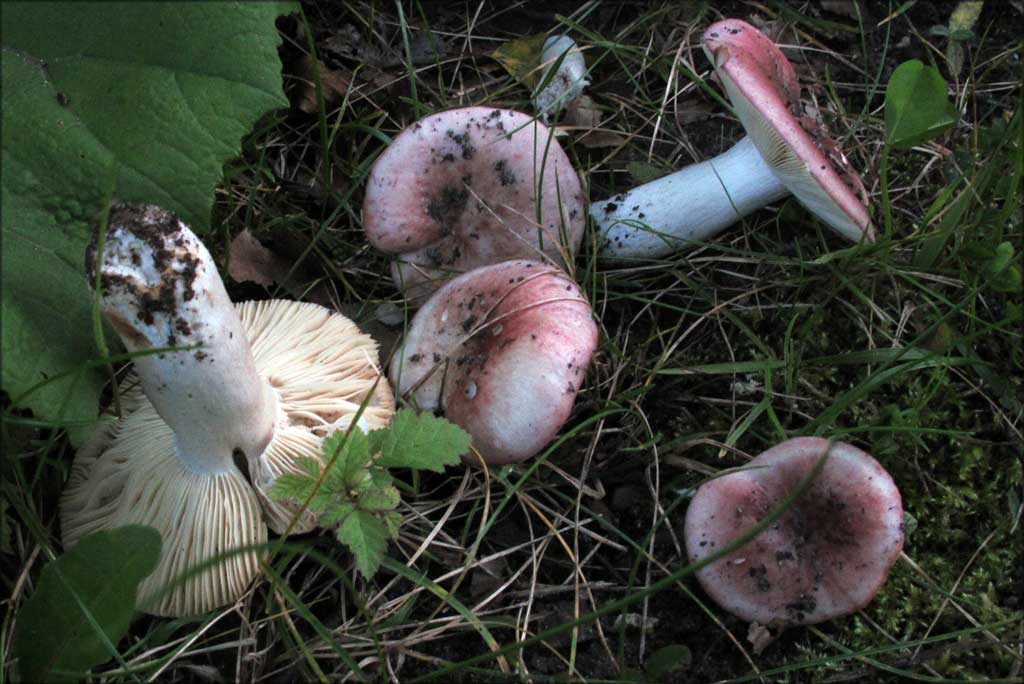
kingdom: Fungi
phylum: Basidiomycota
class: Agaricomycetes
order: Russulales
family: Russulaceae
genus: Russula
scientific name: Russula depallens
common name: falmende skørhat
